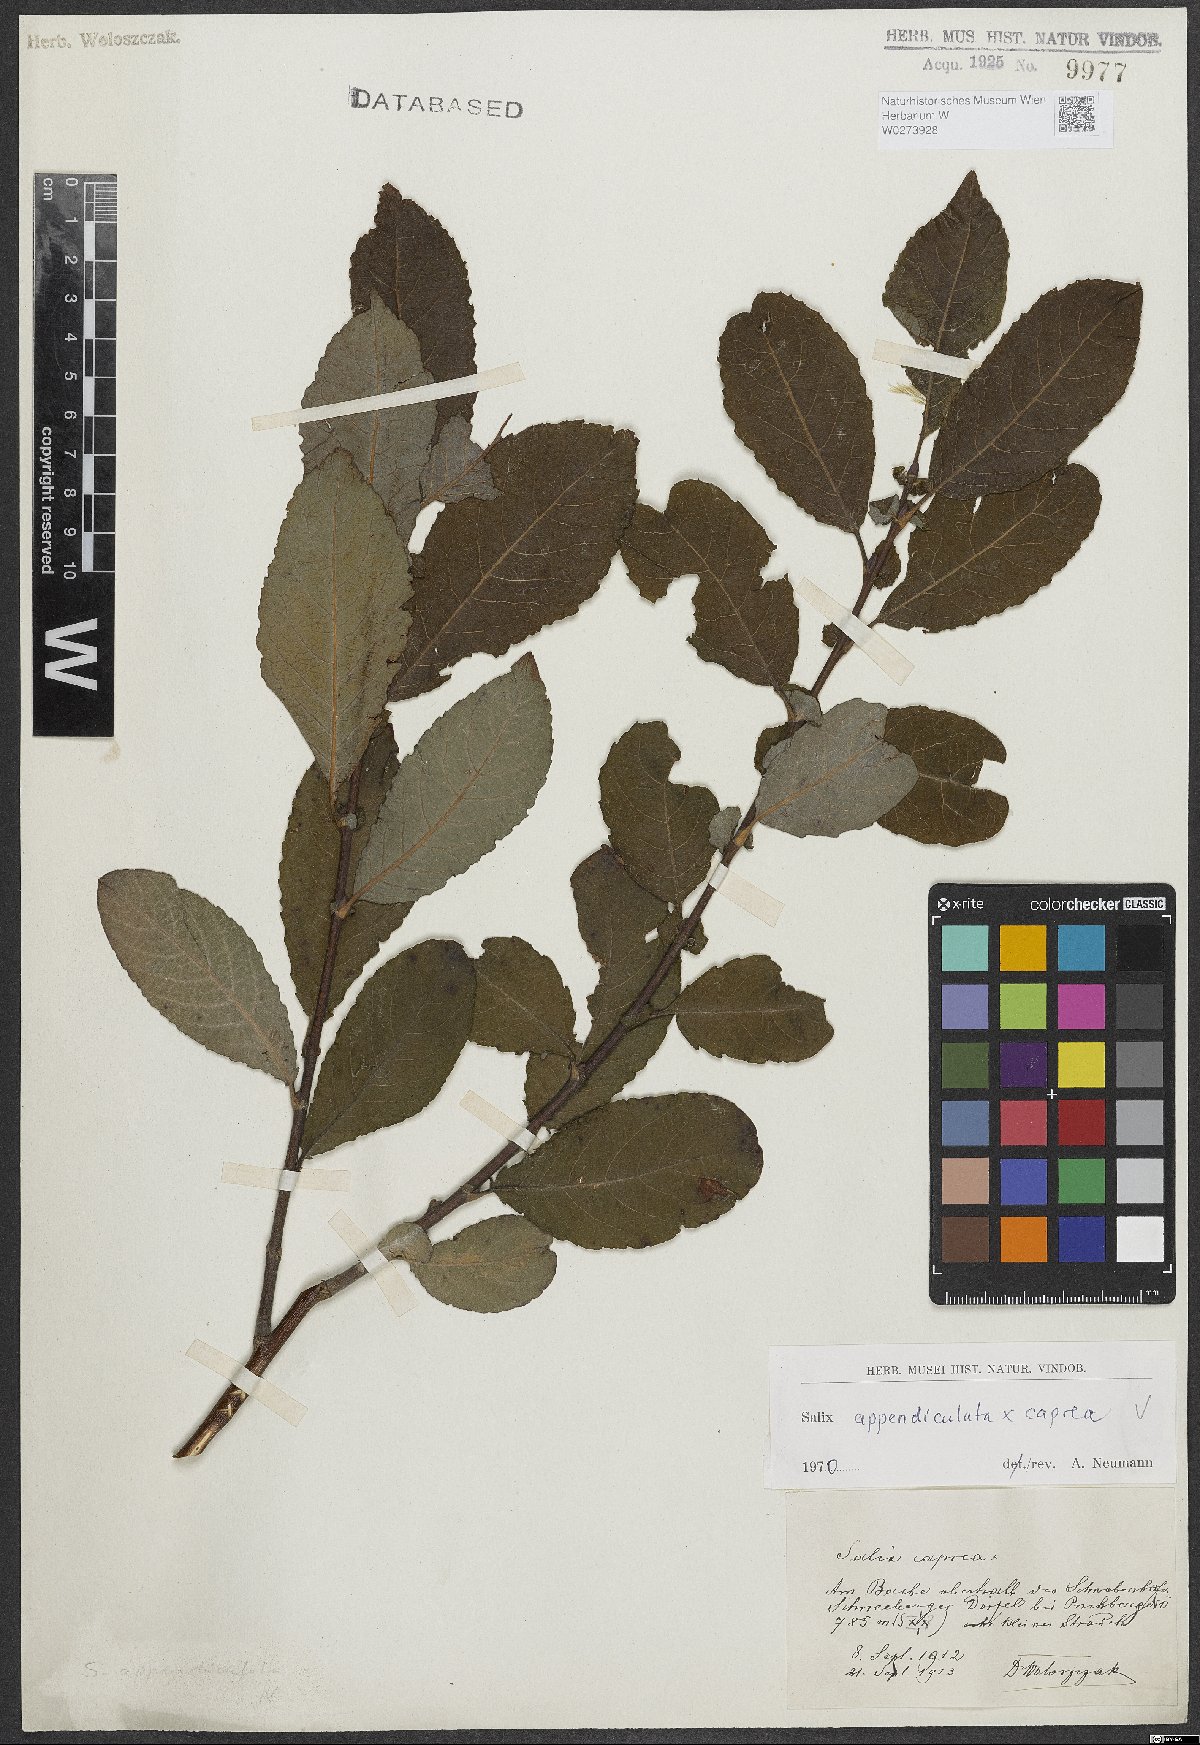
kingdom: Plantae
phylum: Tracheophyta
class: Magnoliopsida
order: Malpighiales
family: Salicaceae
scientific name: Salicaceae
